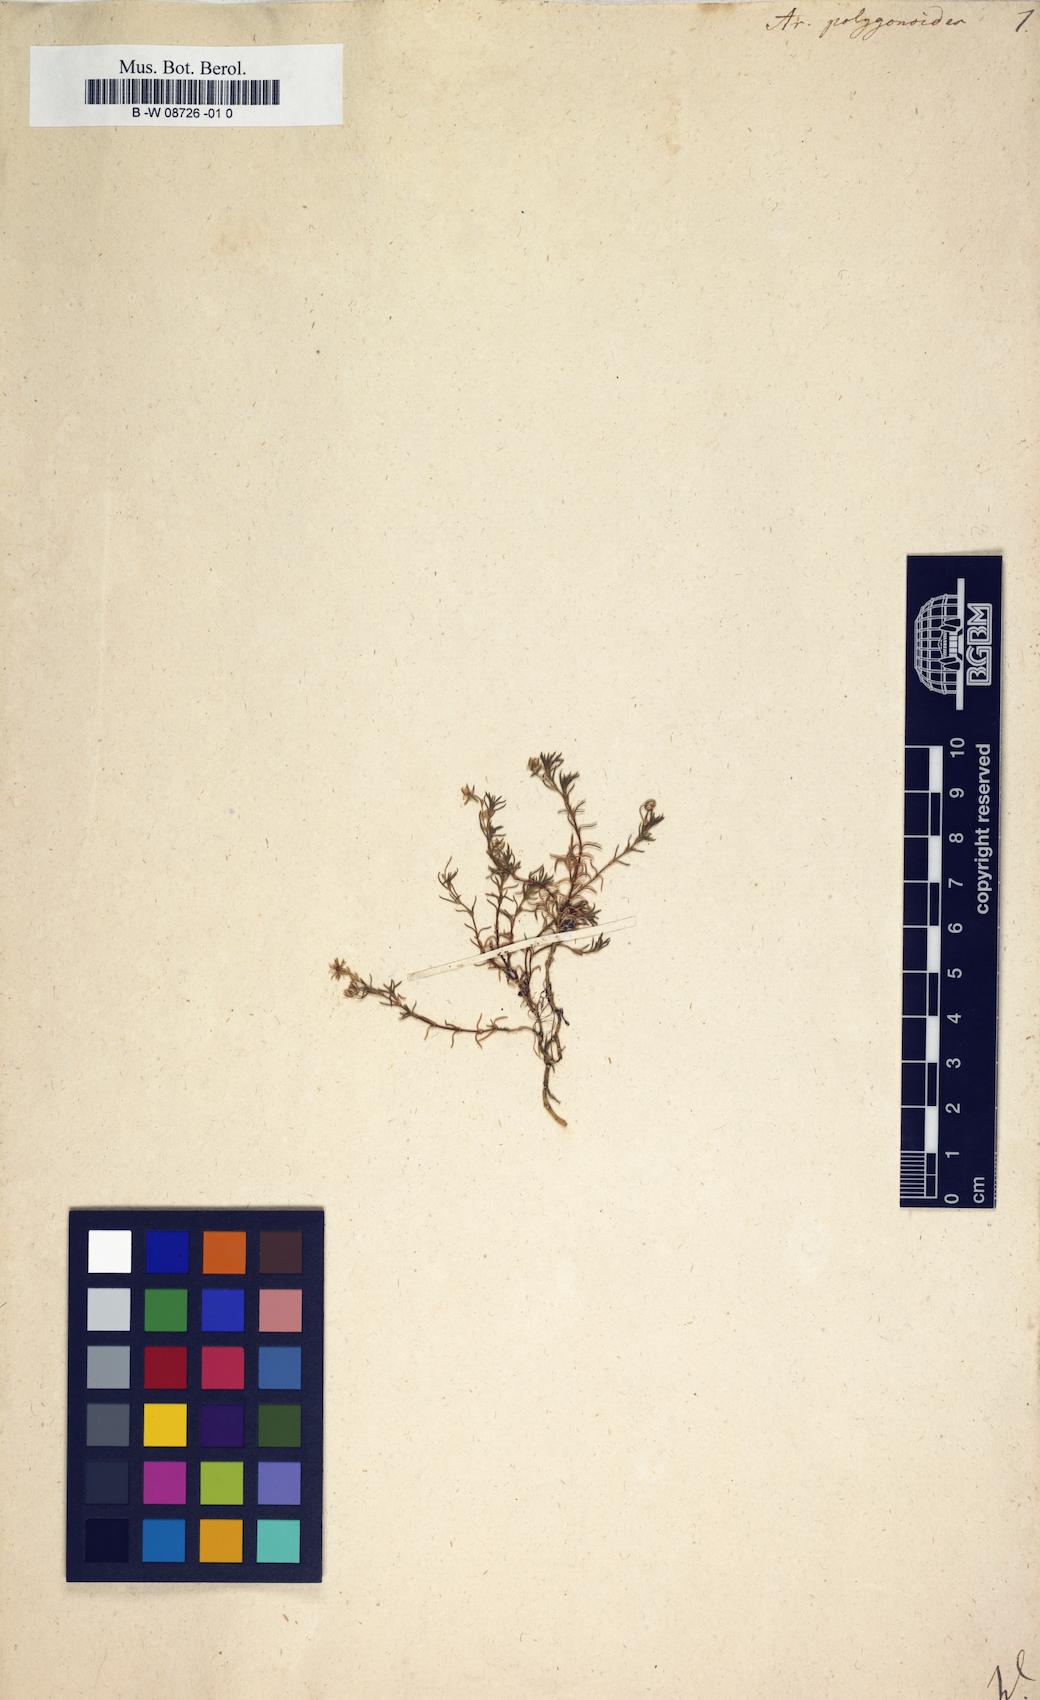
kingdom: Plantae
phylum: Tracheophyta
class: Magnoliopsida
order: Caryophyllales
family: Caryophyllaceae
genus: Moehringia
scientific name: Moehringia ciliata
